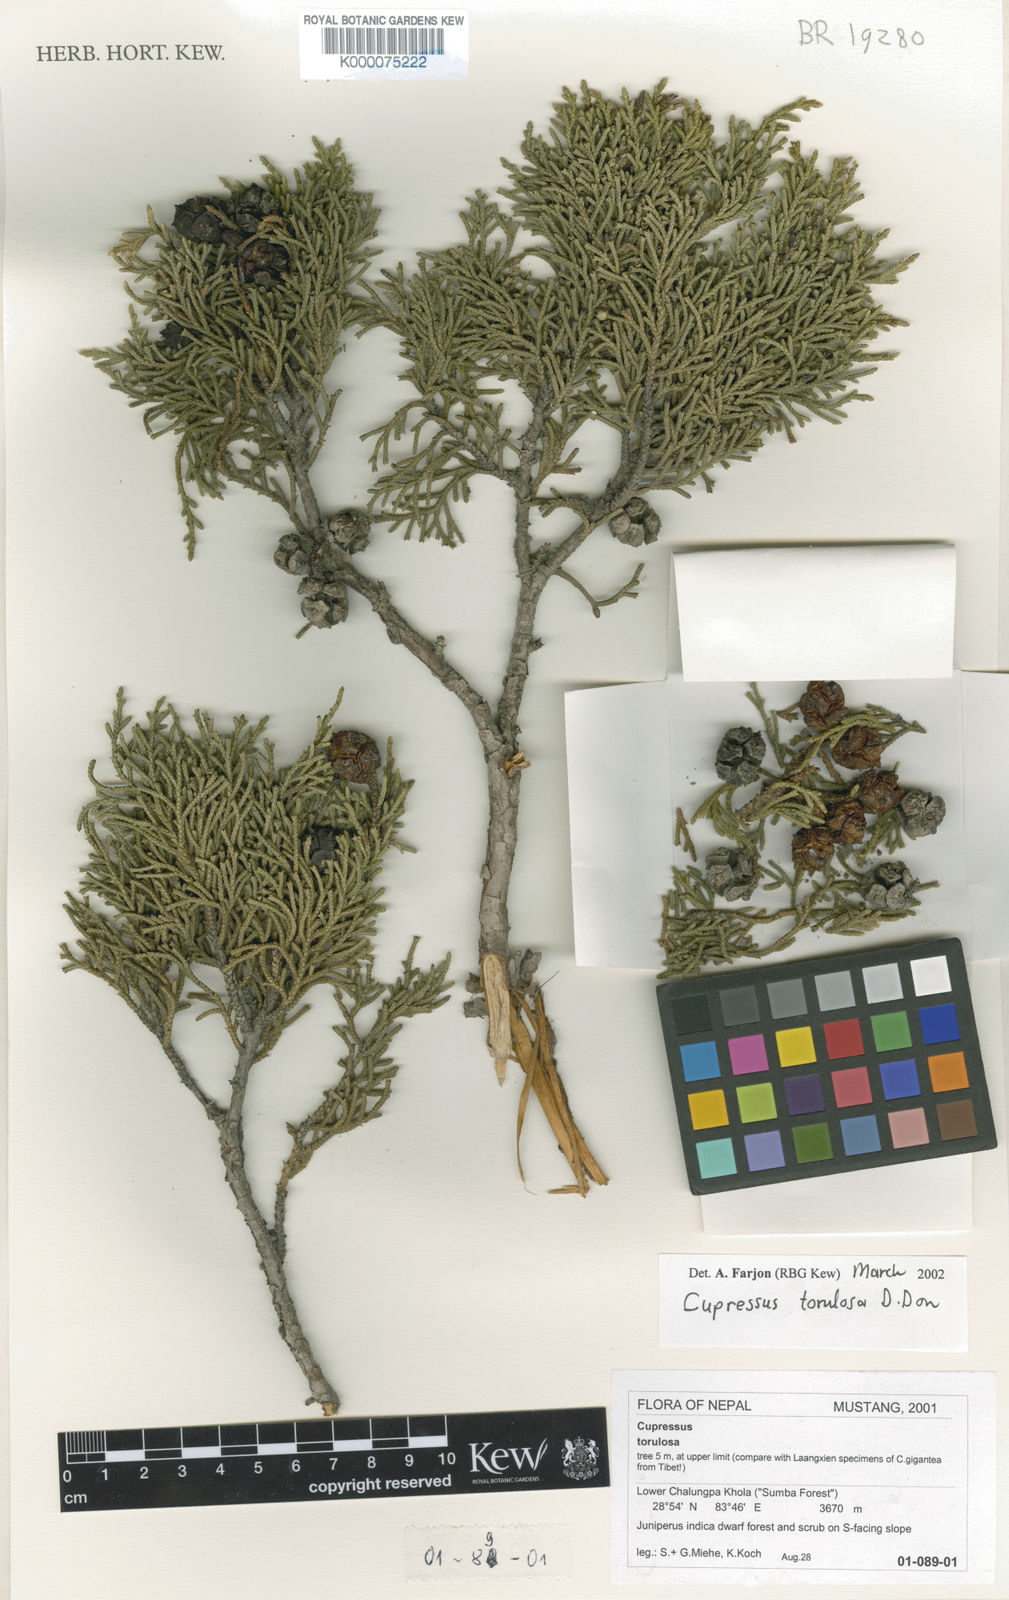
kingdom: Plantae
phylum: Tracheophyta
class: Pinopsida
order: Pinales
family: Cupressaceae
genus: Cupressus
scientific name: Cupressus
